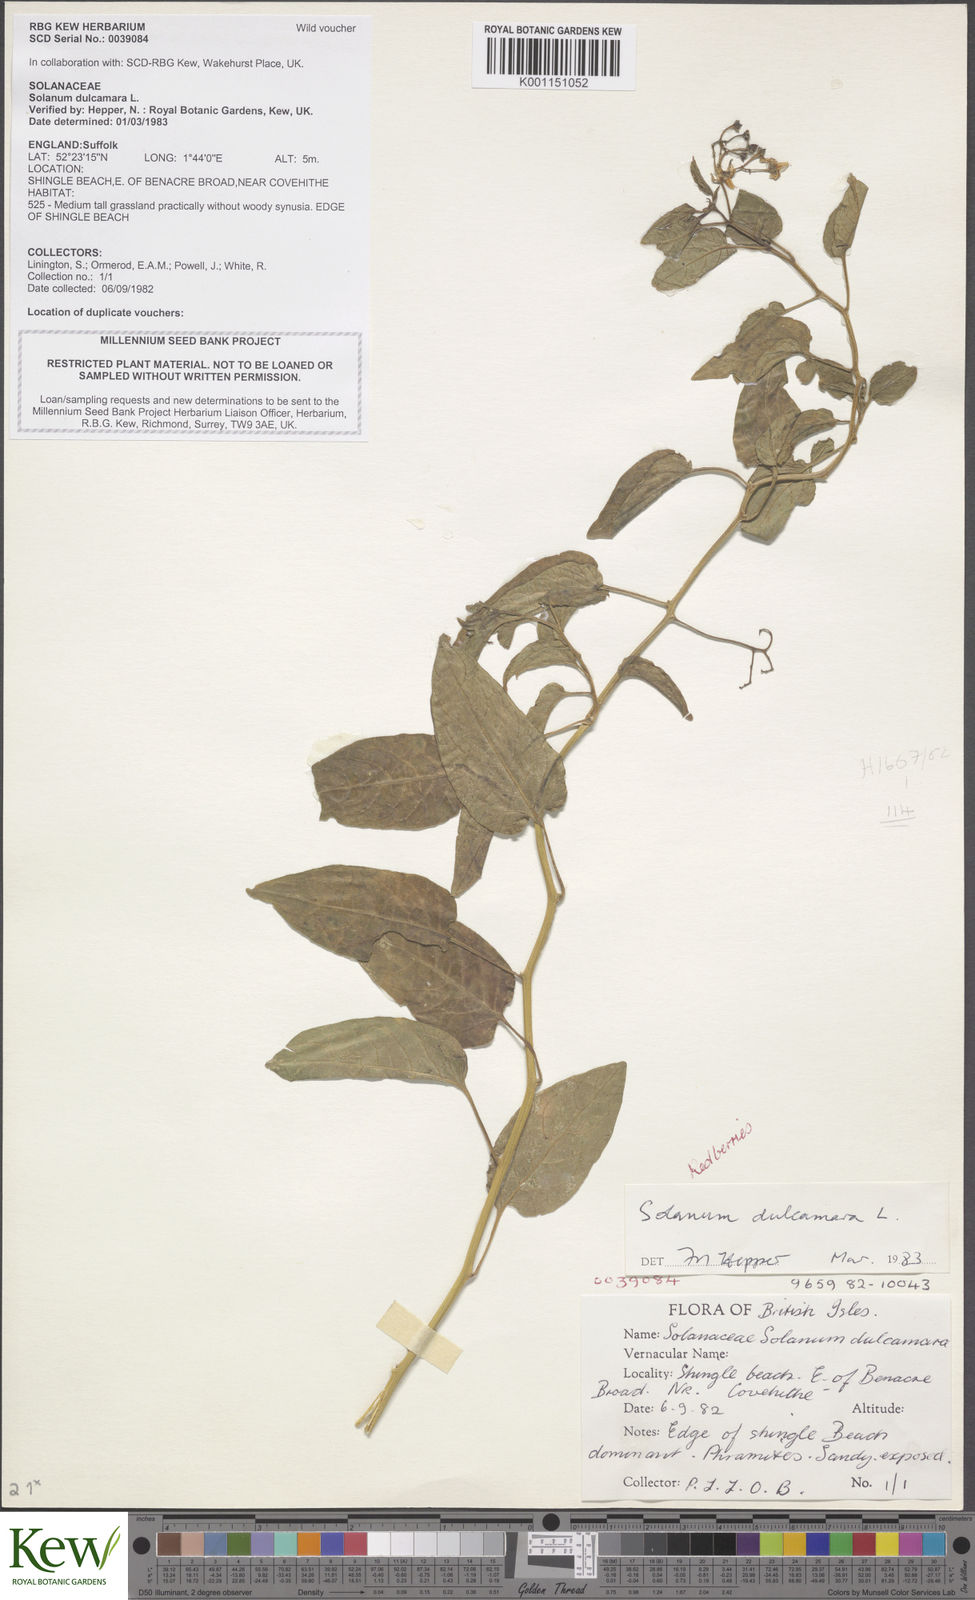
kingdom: Plantae
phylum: Tracheophyta
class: Magnoliopsida
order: Solanales
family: Solanaceae
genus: Solanum
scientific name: Solanum dulcamara
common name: Climbing nightshade
